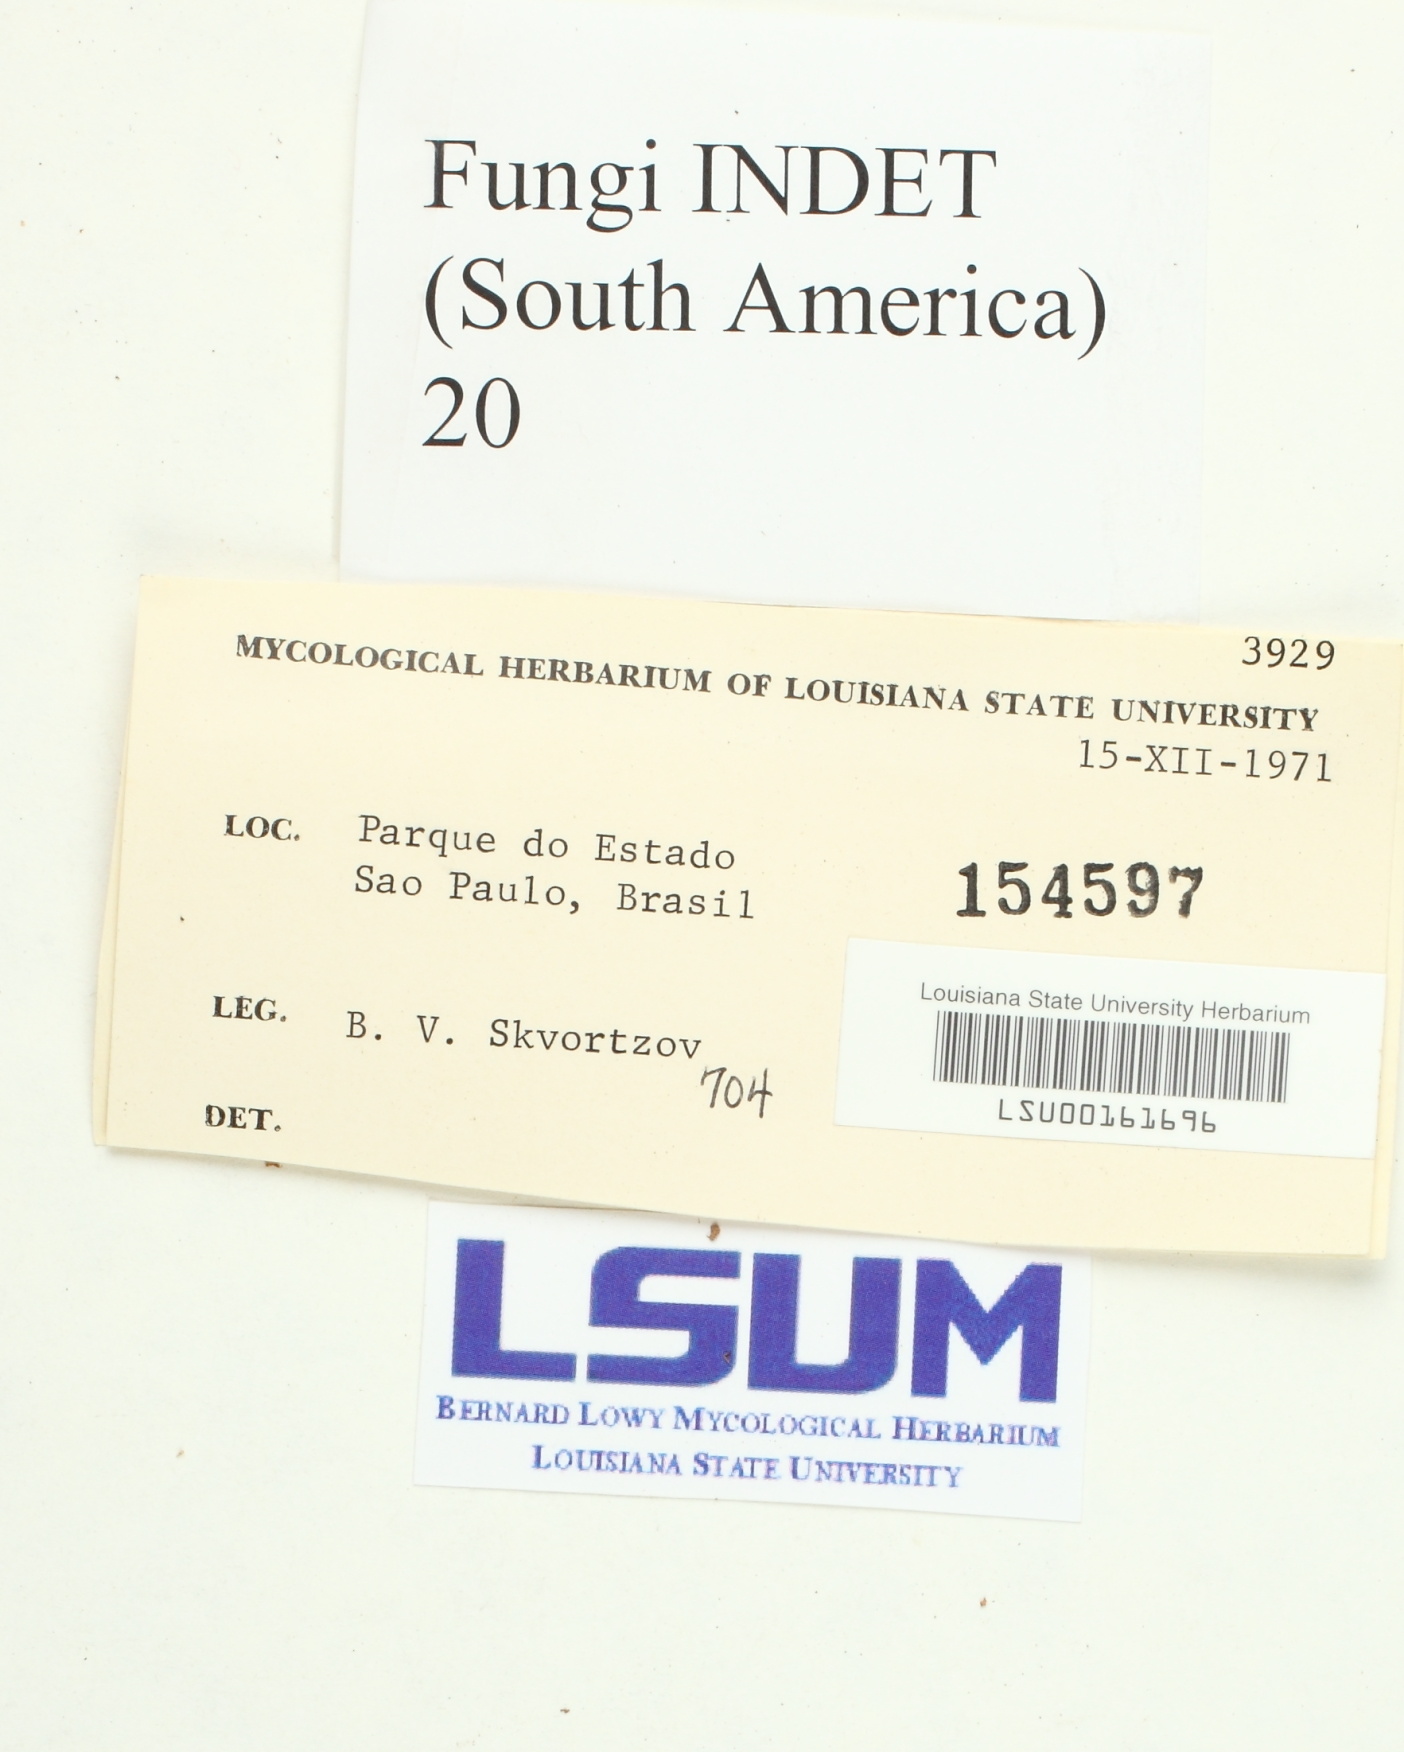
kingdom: Fungi
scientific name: Fungi
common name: Fungi
